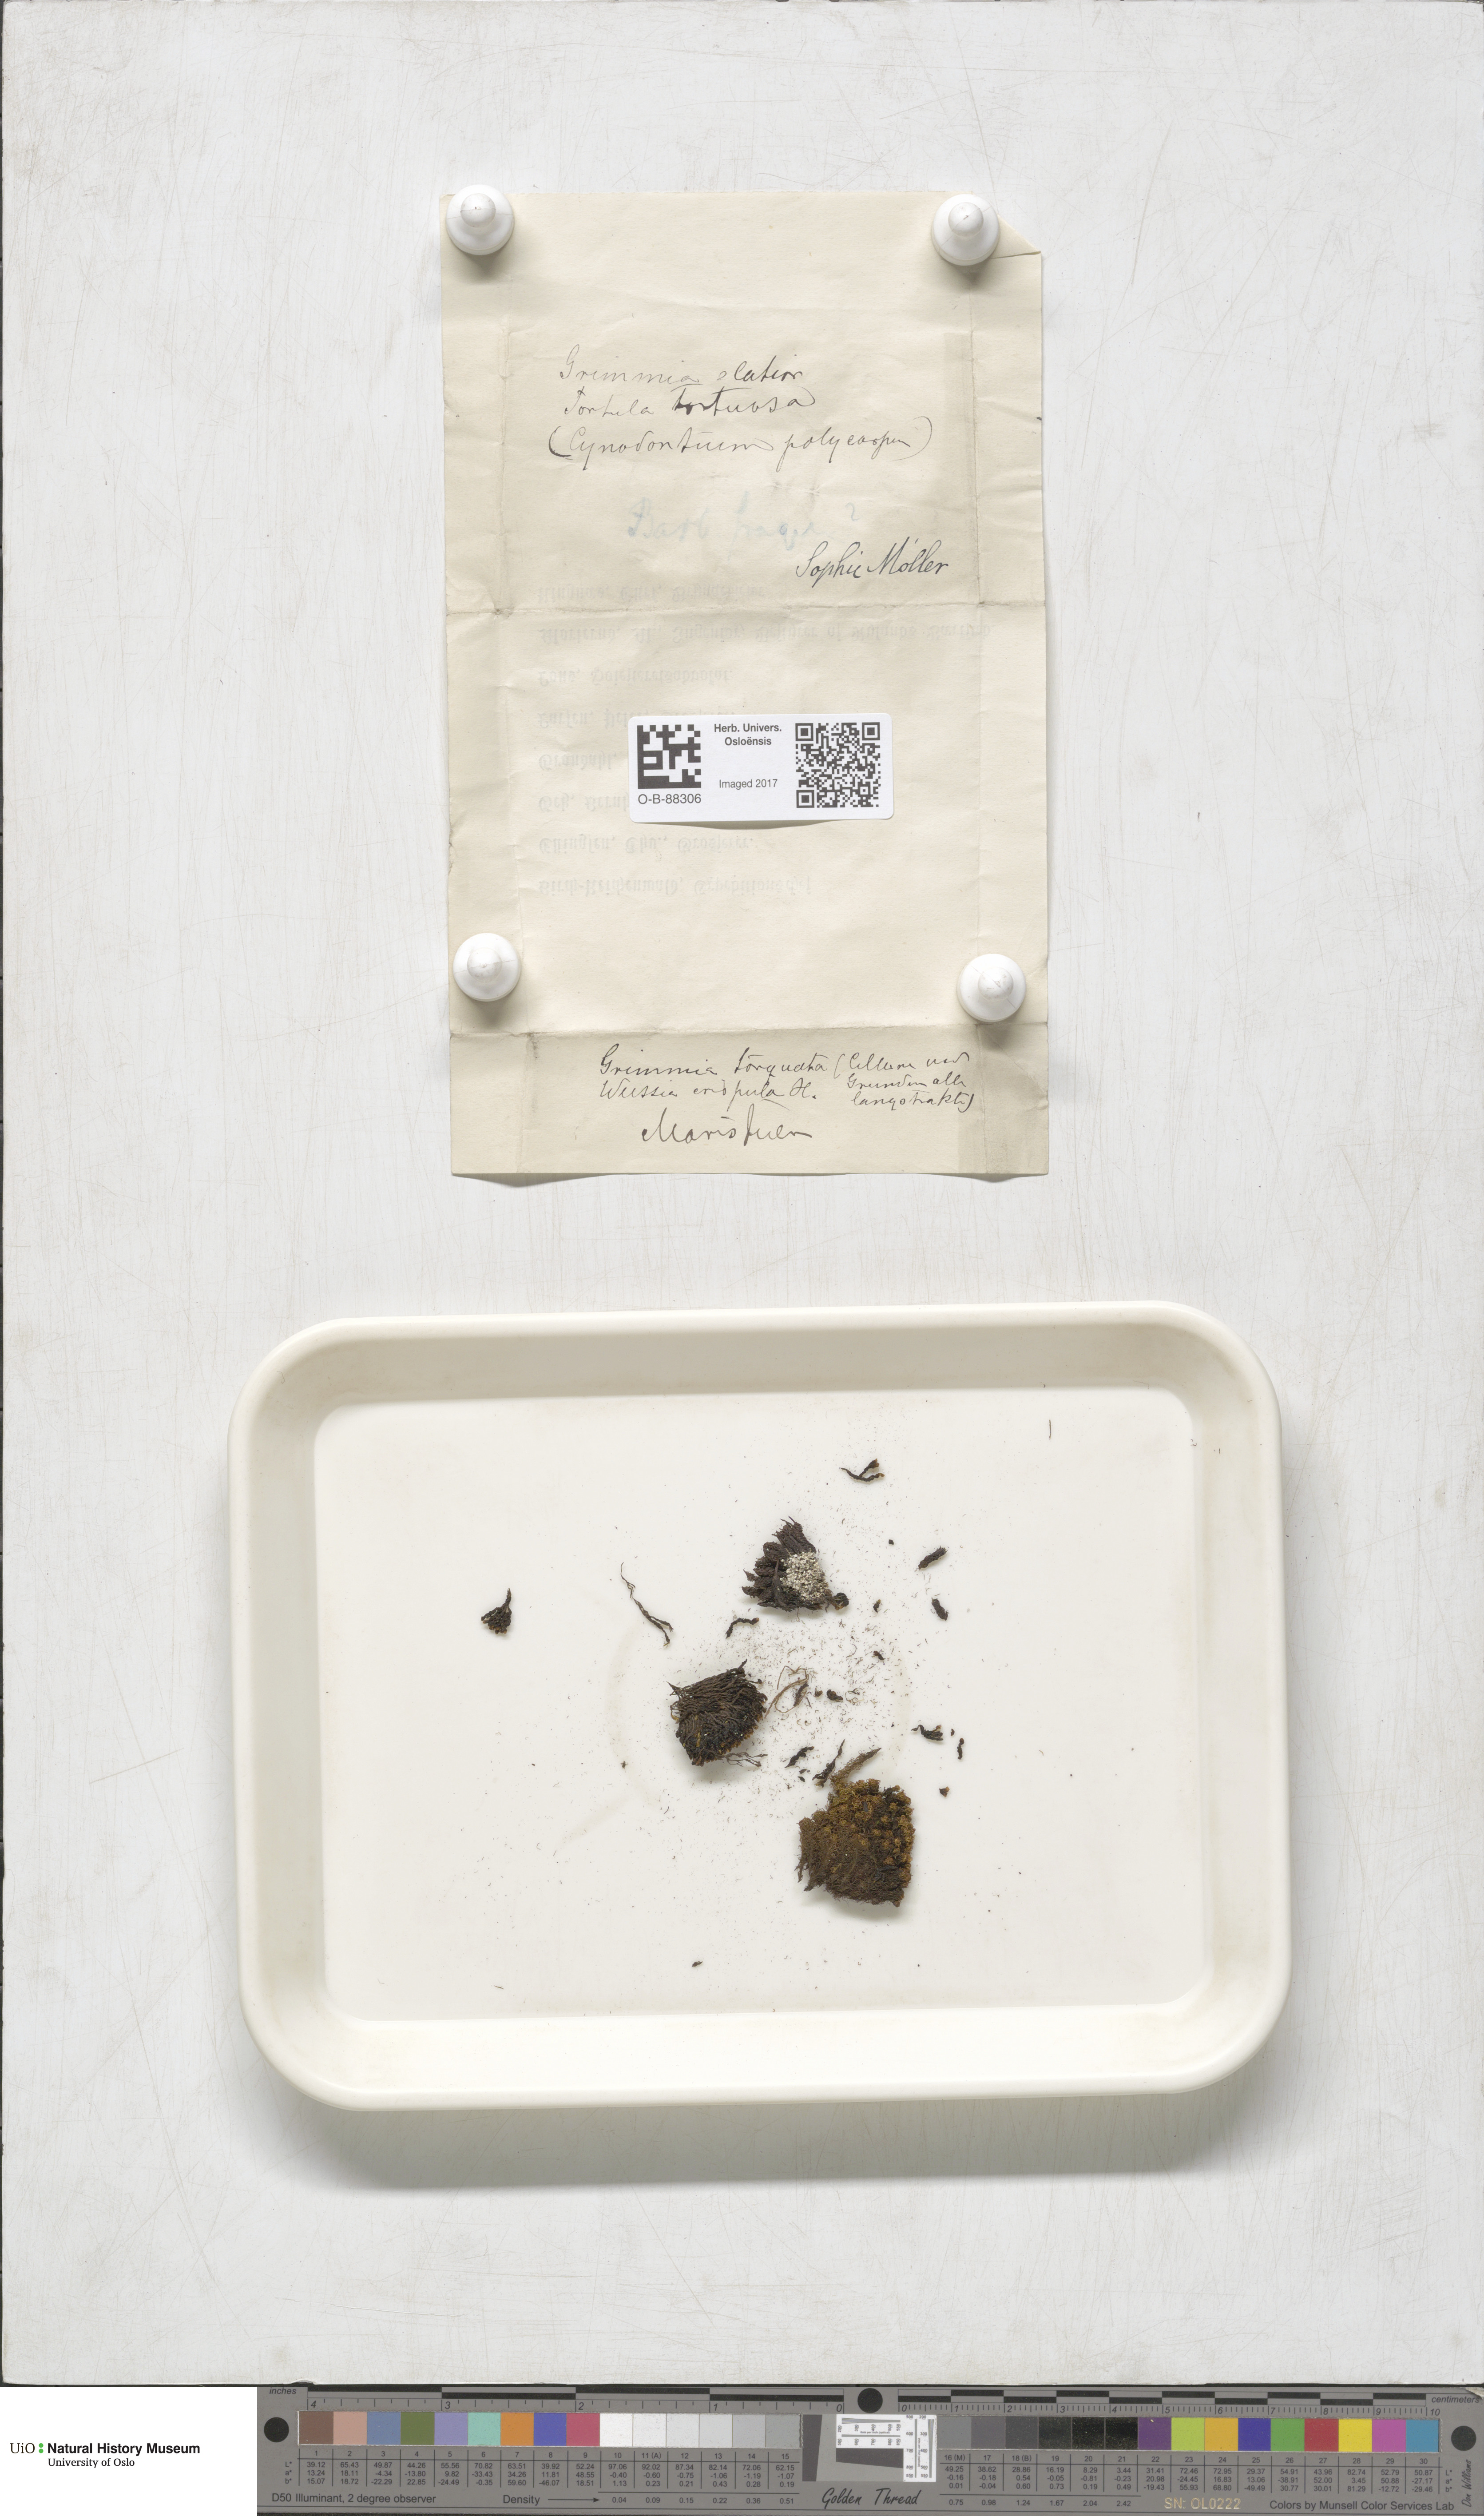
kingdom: Plantae
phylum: Bryophyta
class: Bryopsida
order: Grimmiales
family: Grimmiaceae
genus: Grimmia
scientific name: Grimmia torquata
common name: Twisted grimmia
